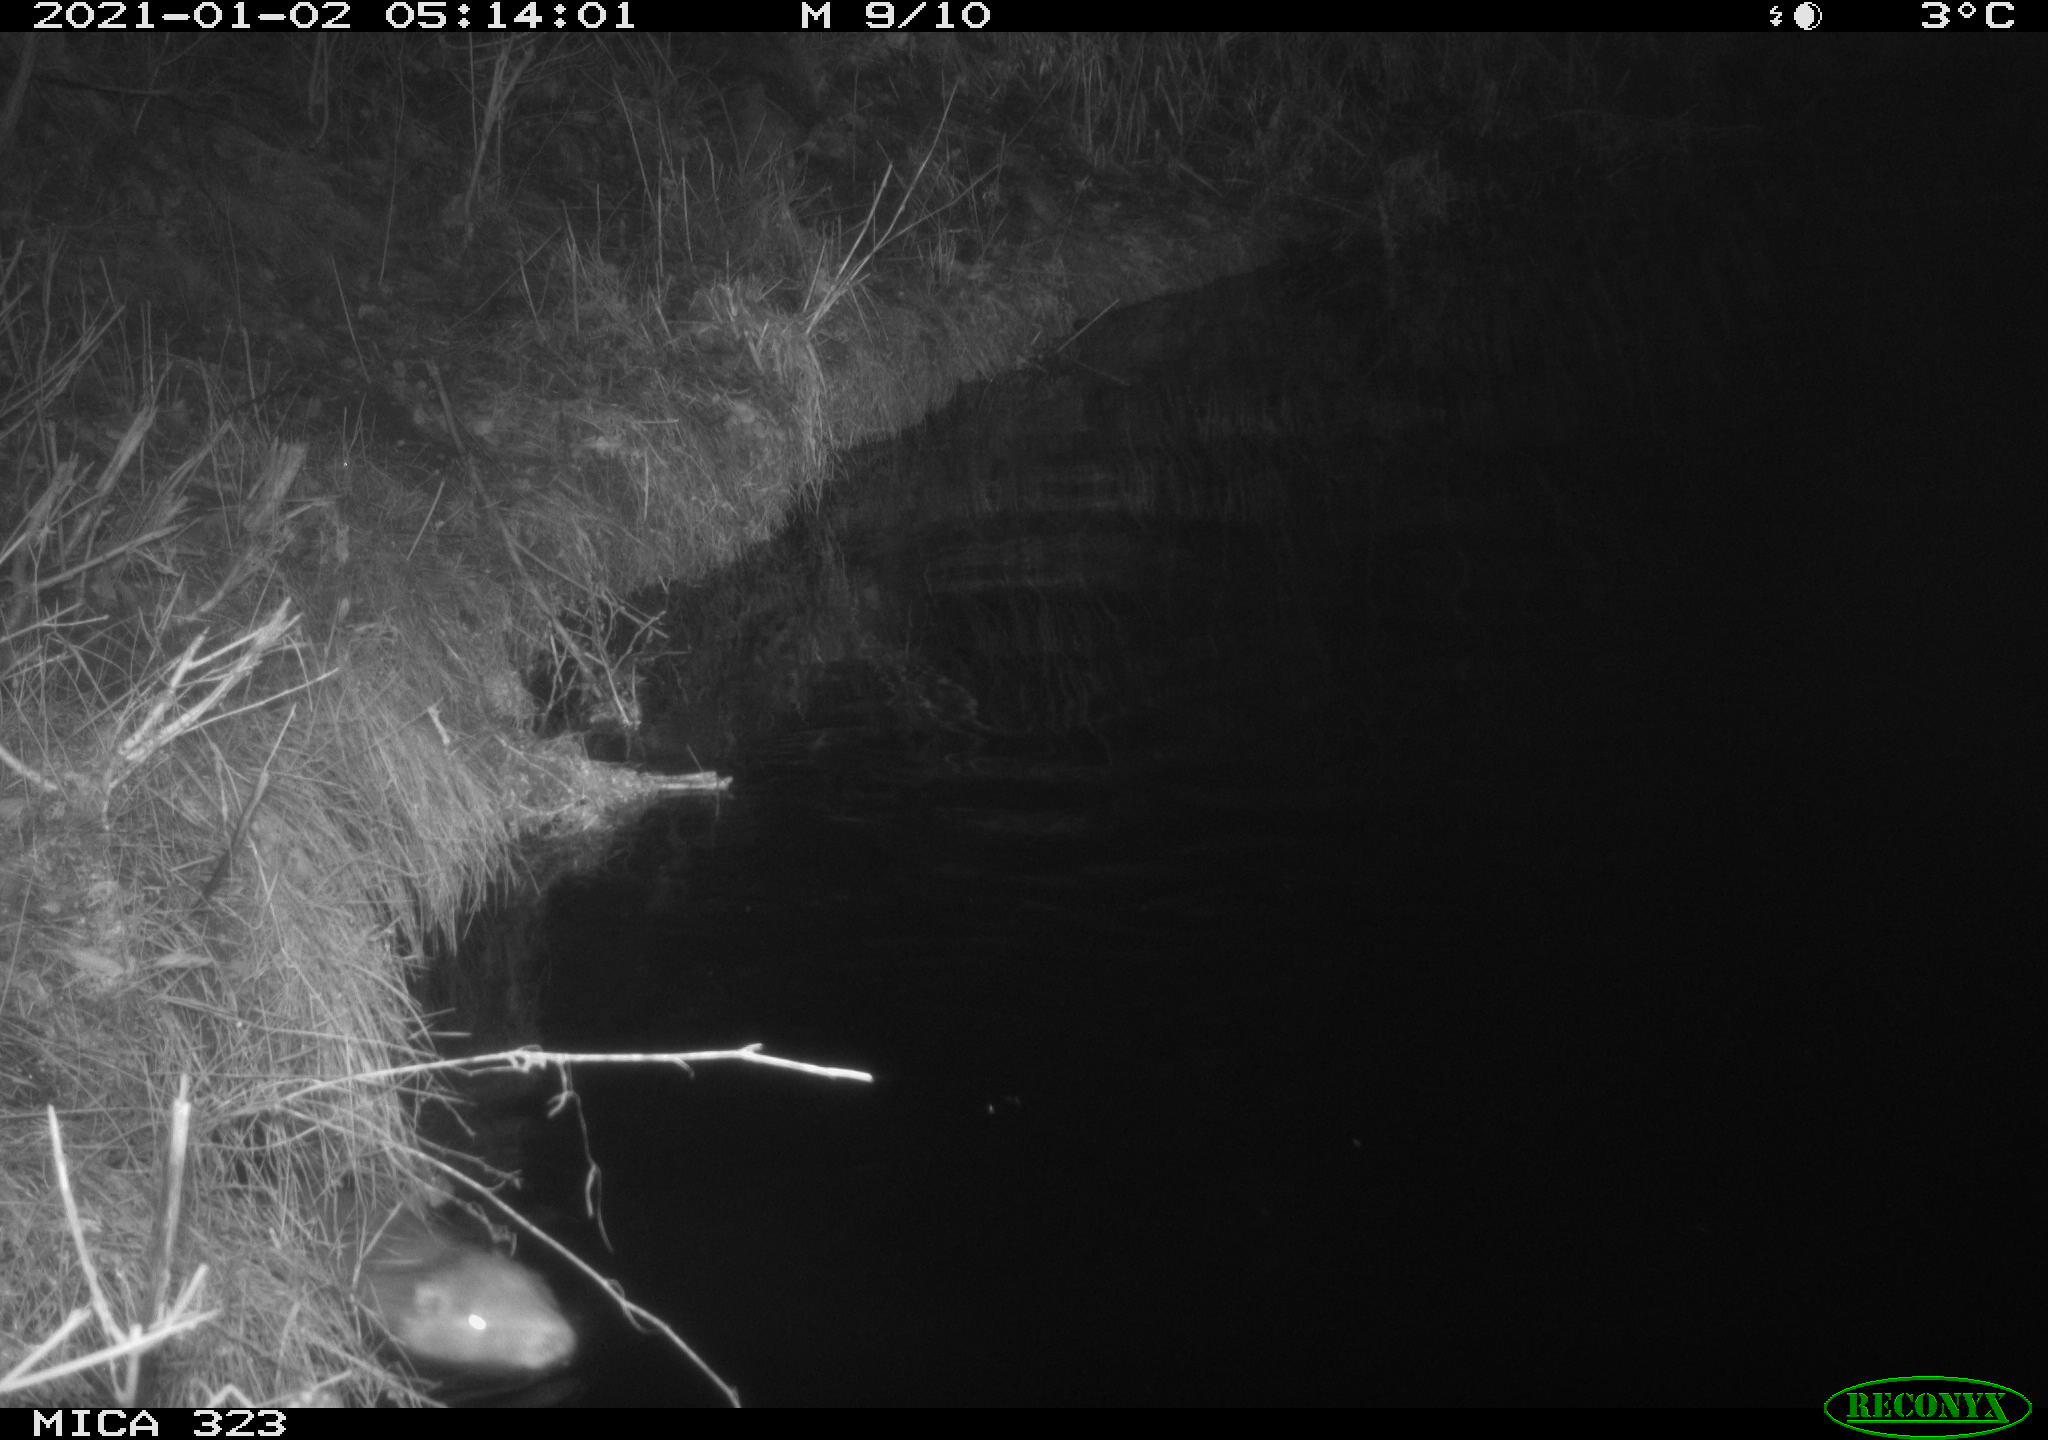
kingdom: Animalia
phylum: Chordata
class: Mammalia
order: Rodentia
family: Myocastoridae
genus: Myocastor
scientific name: Myocastor coypus
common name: Coypu
